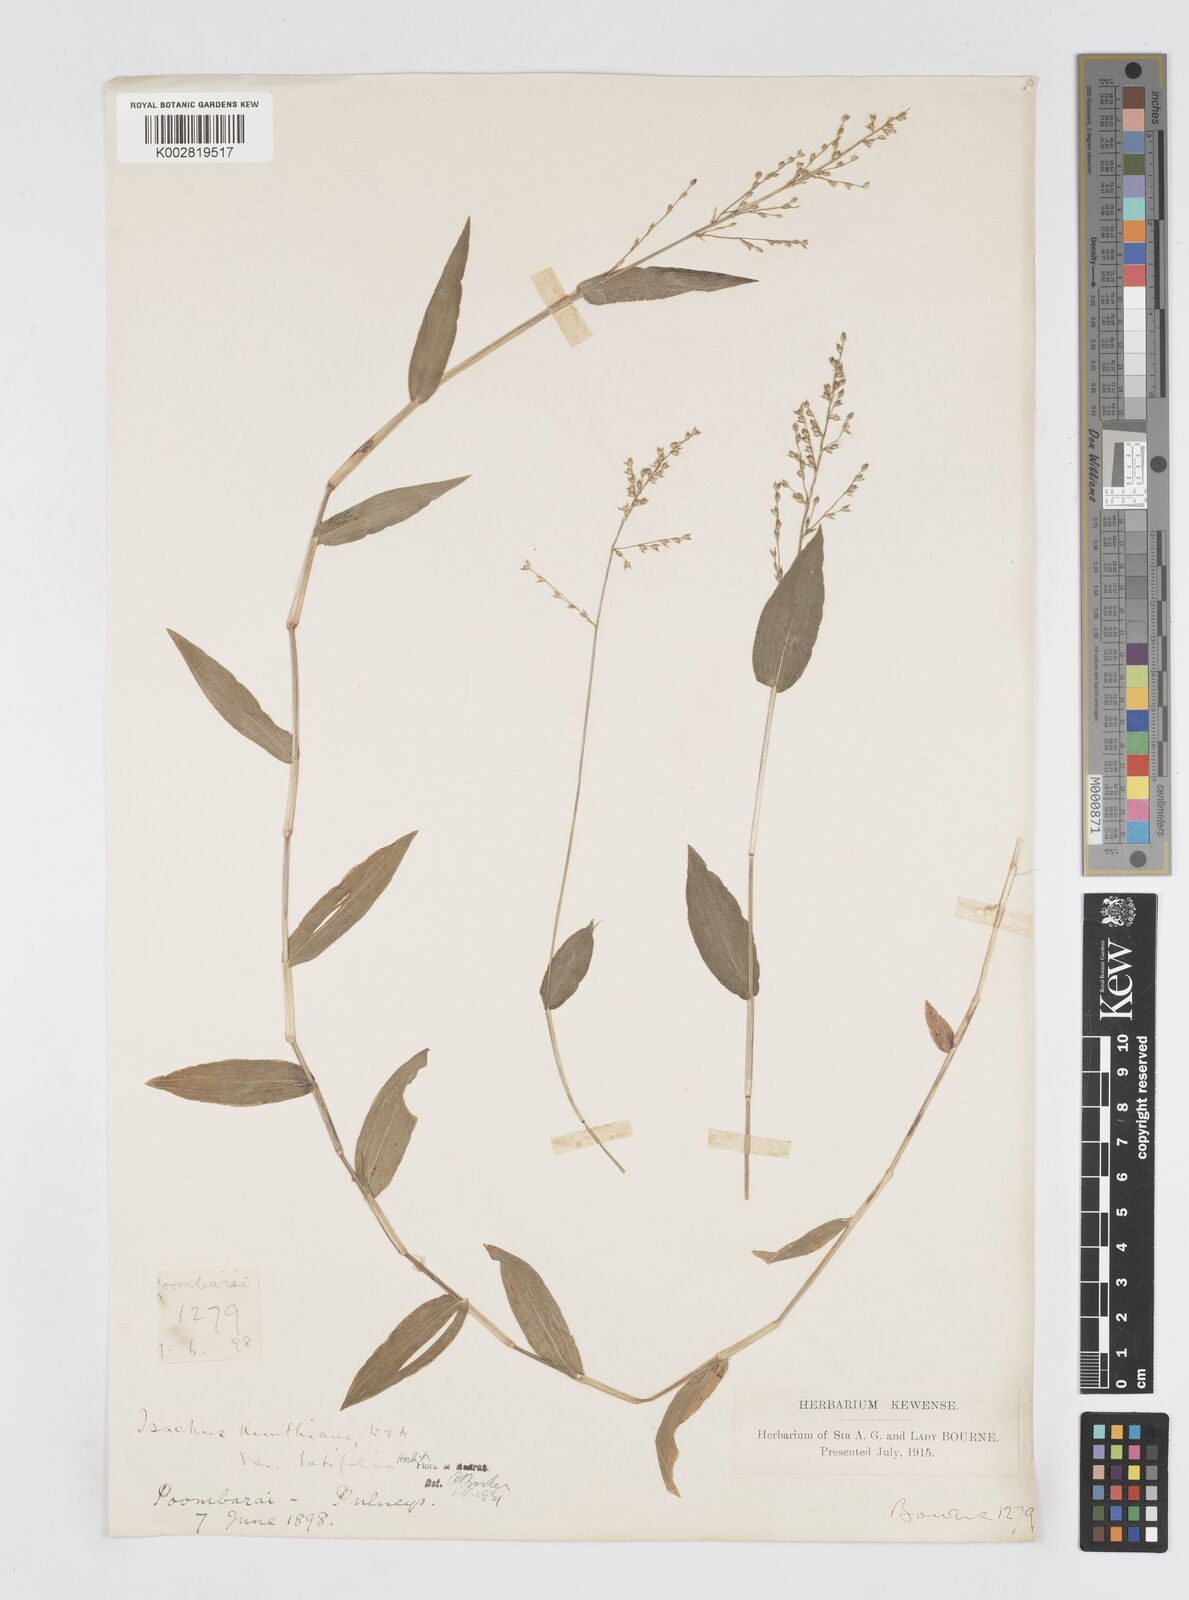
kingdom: Plantae
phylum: Tracheophyta
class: Liliopsida
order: Poales
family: Poaceae
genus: Isachne
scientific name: Isachne kunthiana
